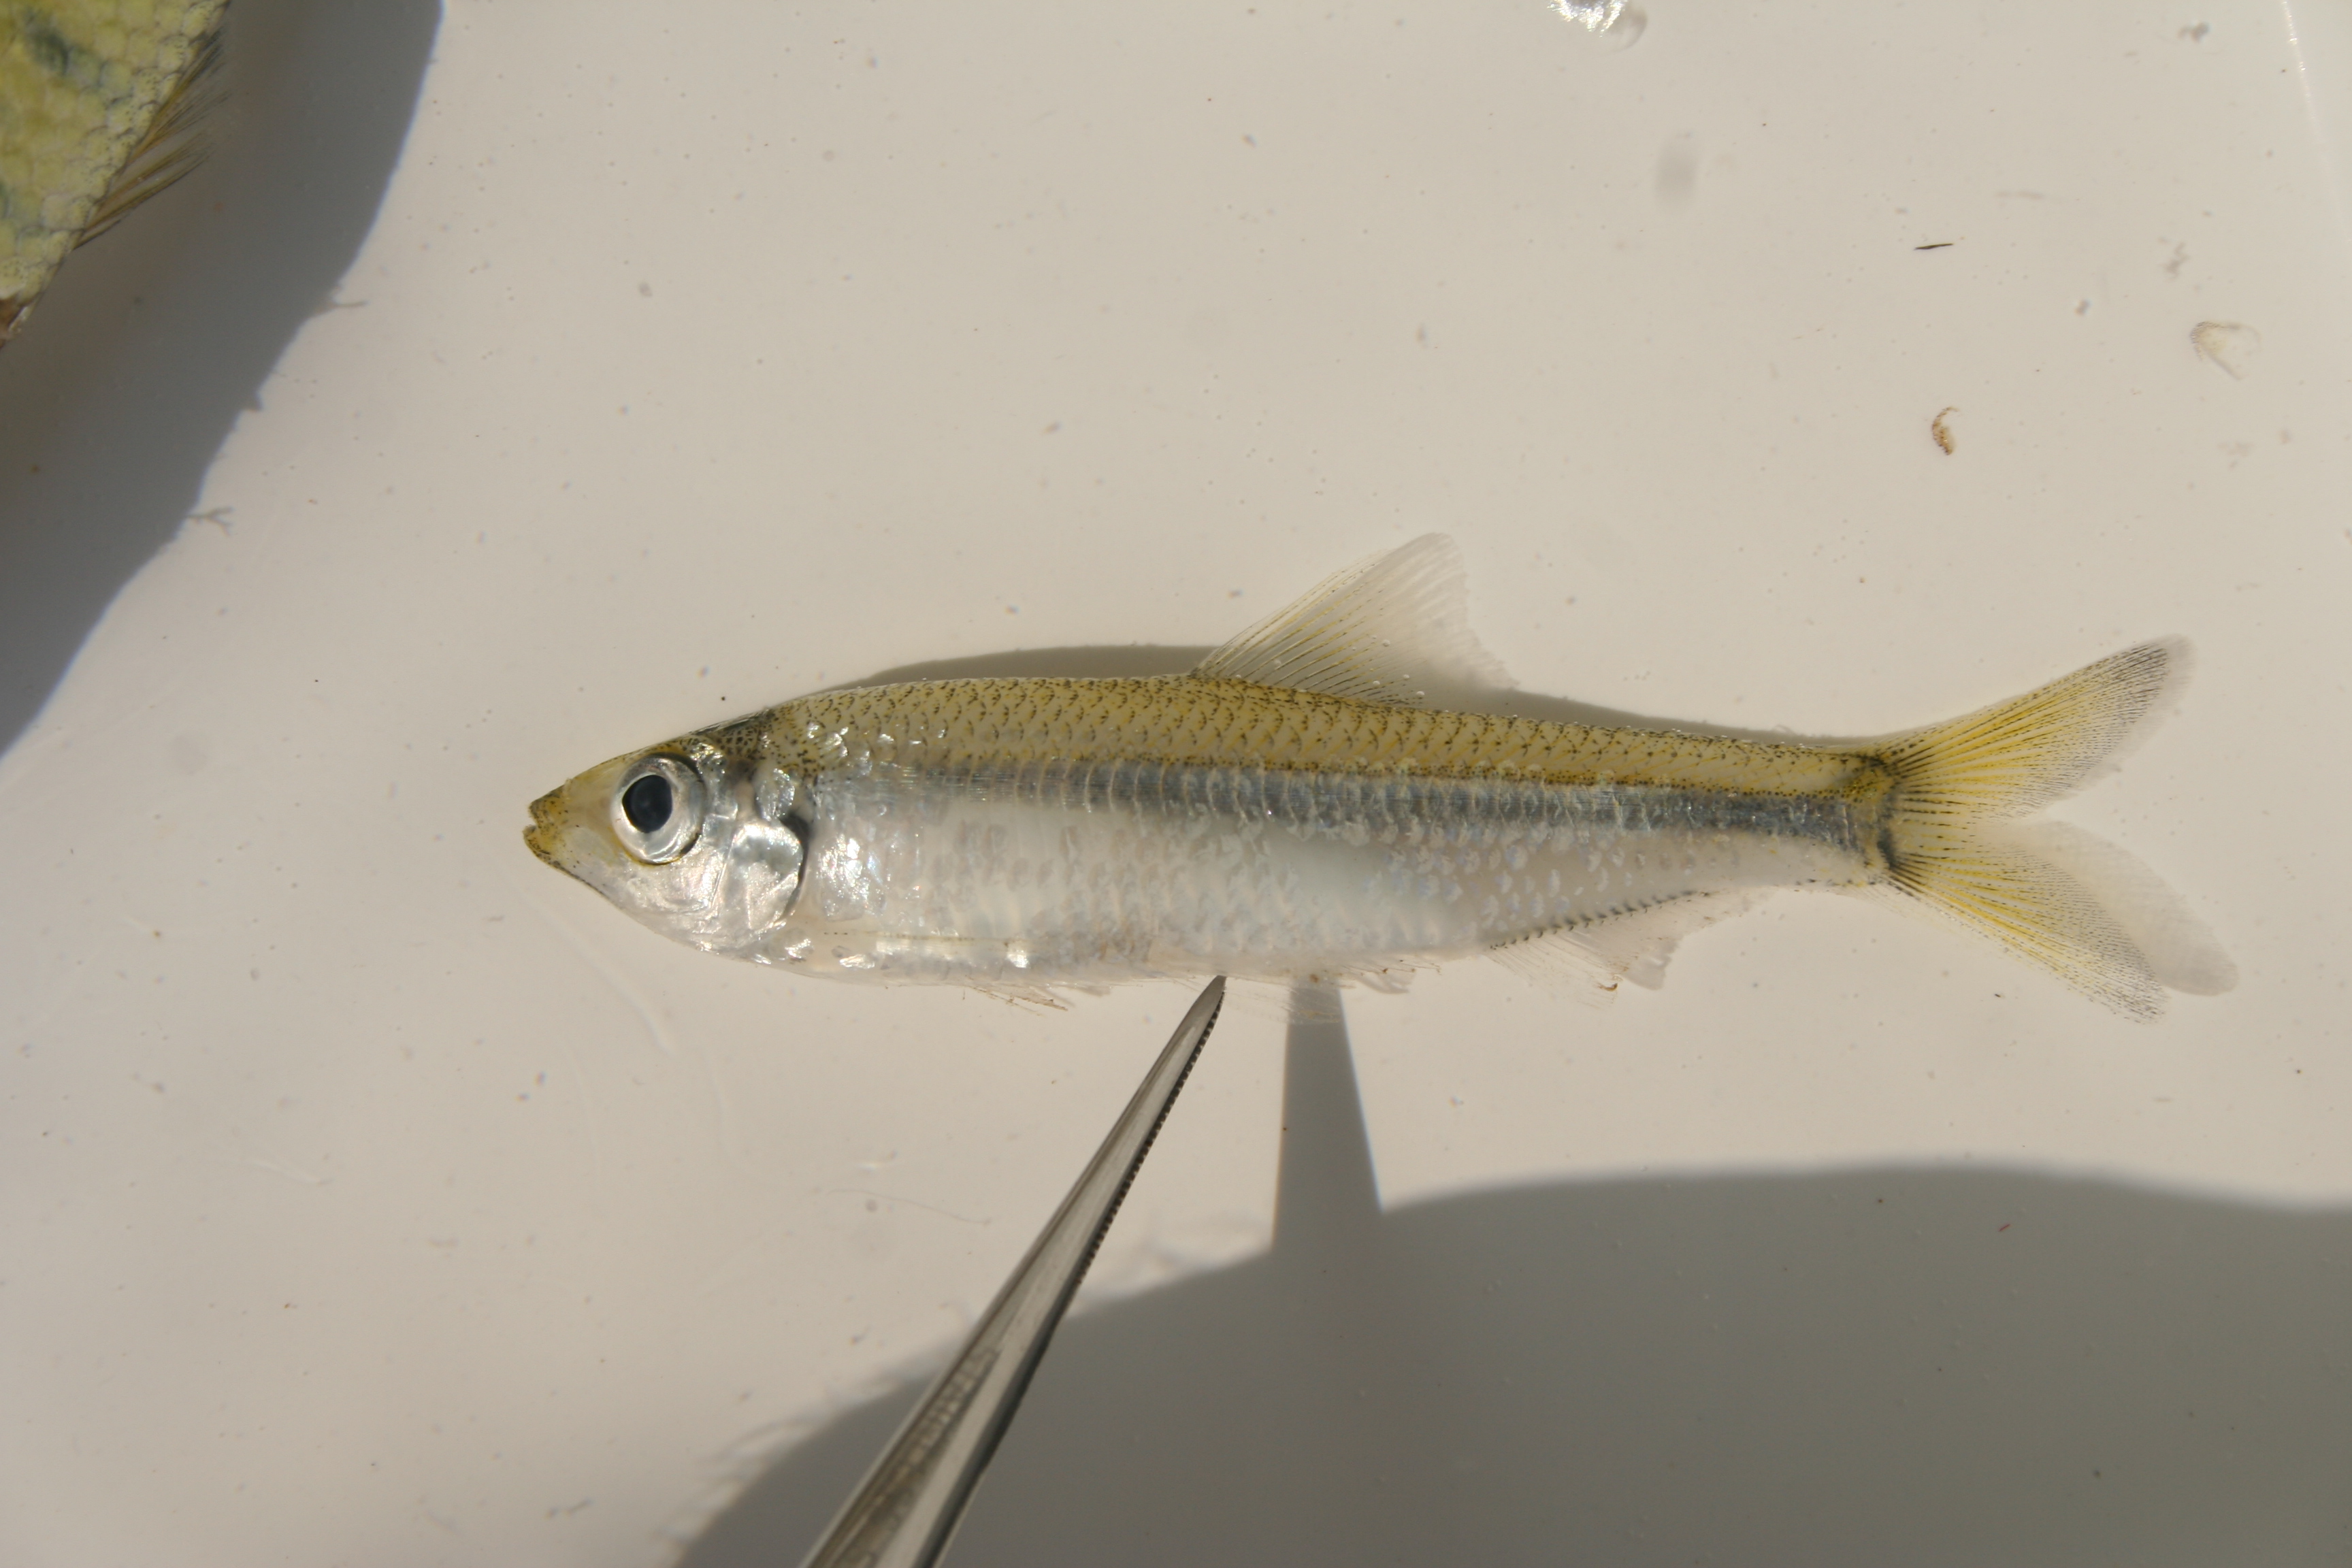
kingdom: Animalia
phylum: Chordata
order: Clupeiformes
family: Clupeidae
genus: Pellonula
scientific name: Pellonula
